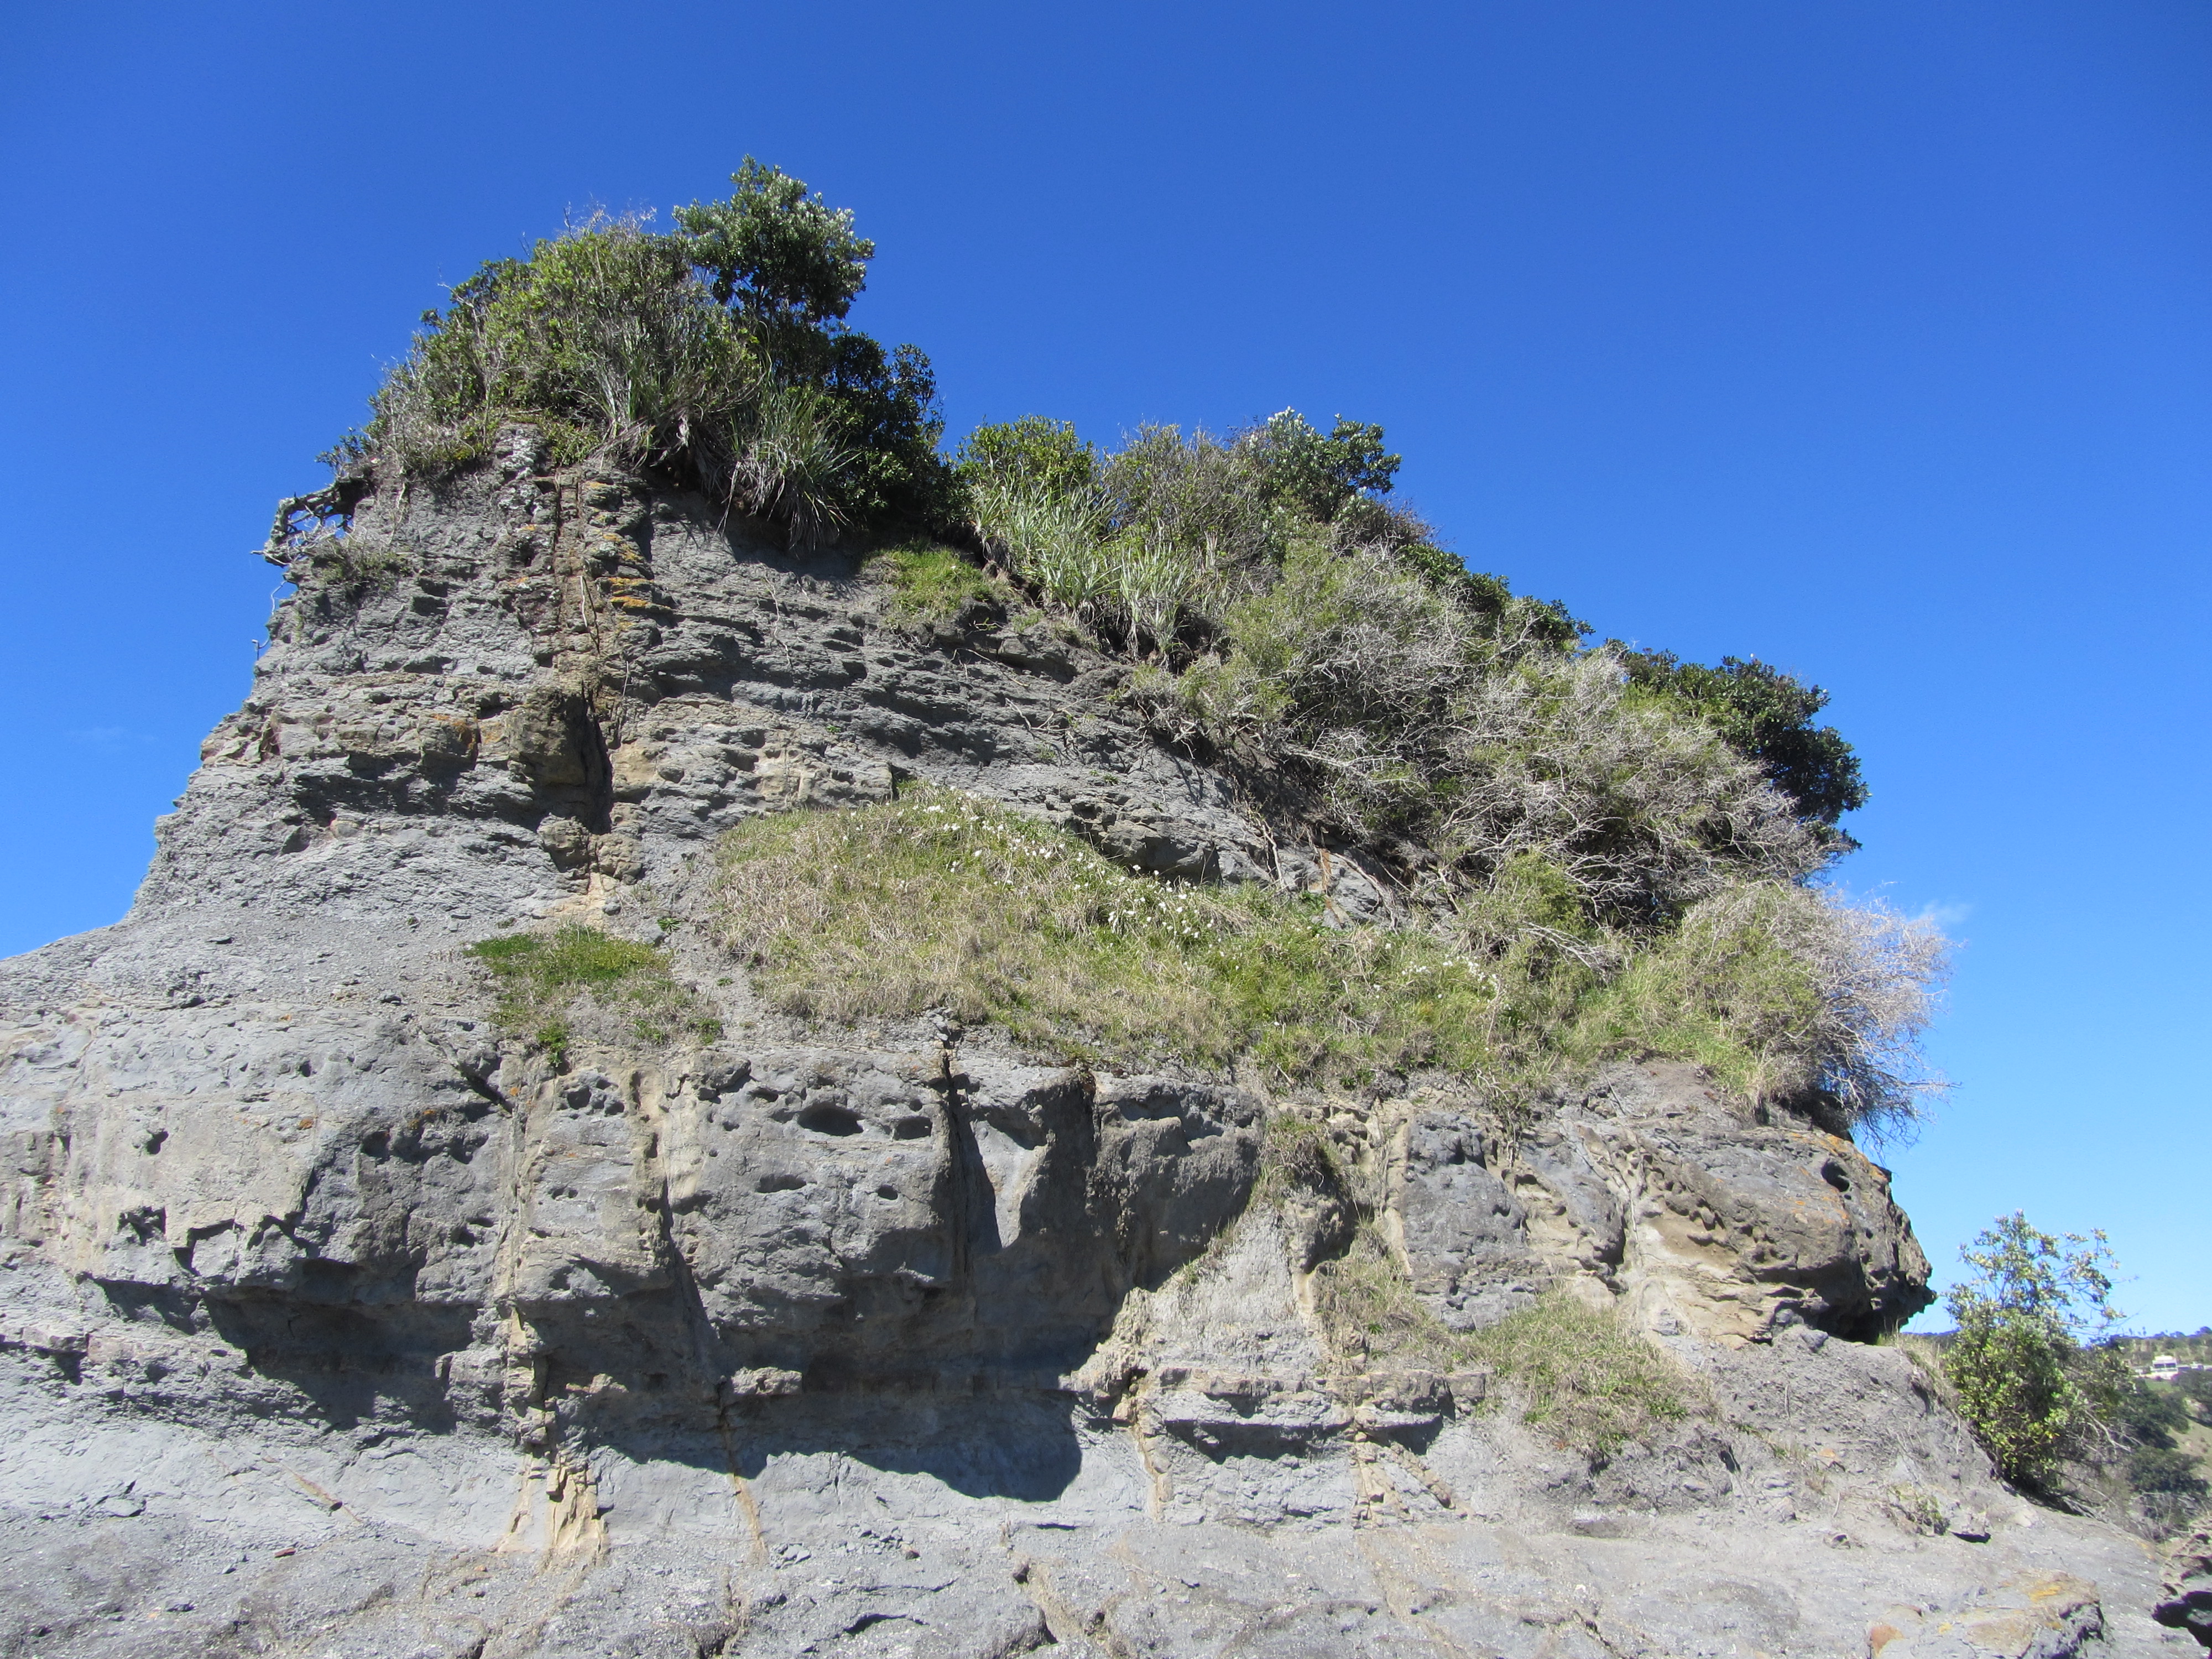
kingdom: Plantae
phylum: Tracheophyta
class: Liliopsida
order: Asparagales
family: Iridaceae
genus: Freesia
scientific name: Freesia refracta
